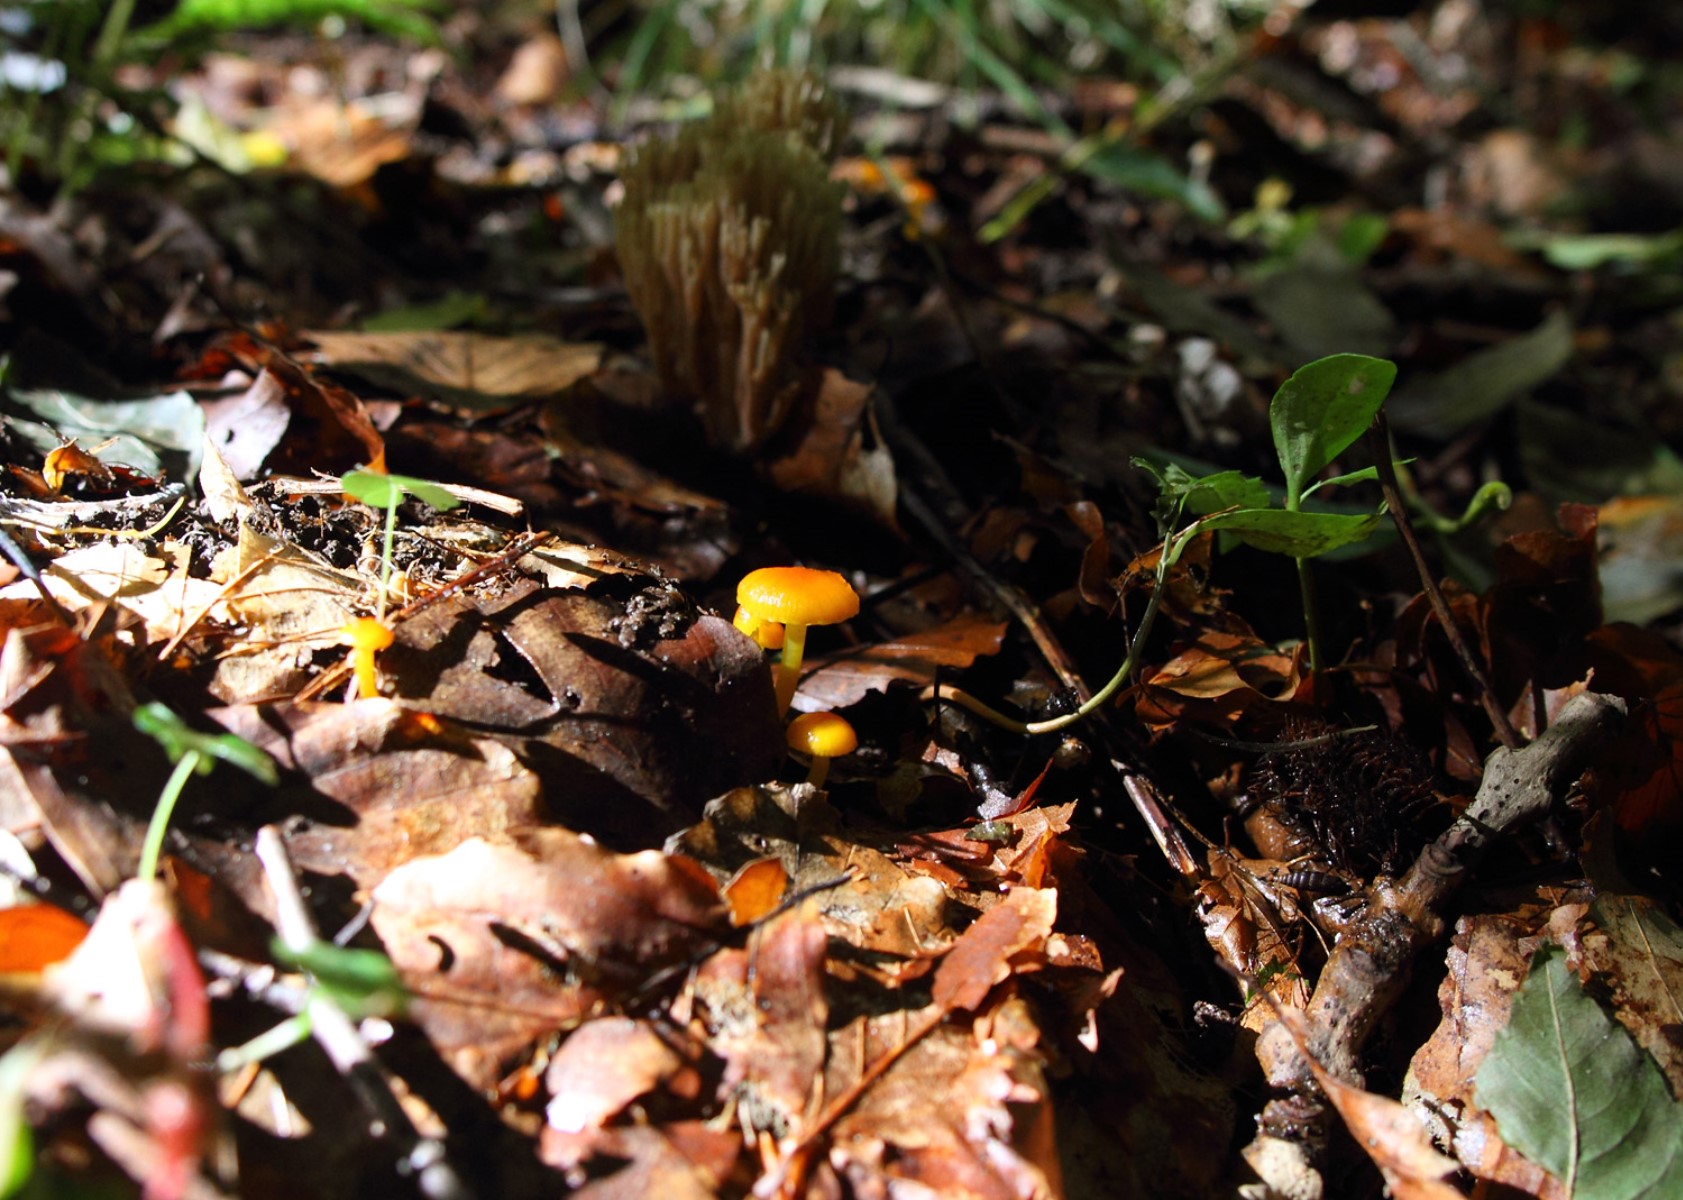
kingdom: Fungi
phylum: Basidiomycota
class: Agaricomycetes
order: Agaricales
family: Hygrophoraceae
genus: Hygrocybe
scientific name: Hygrocybe
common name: vokshat
